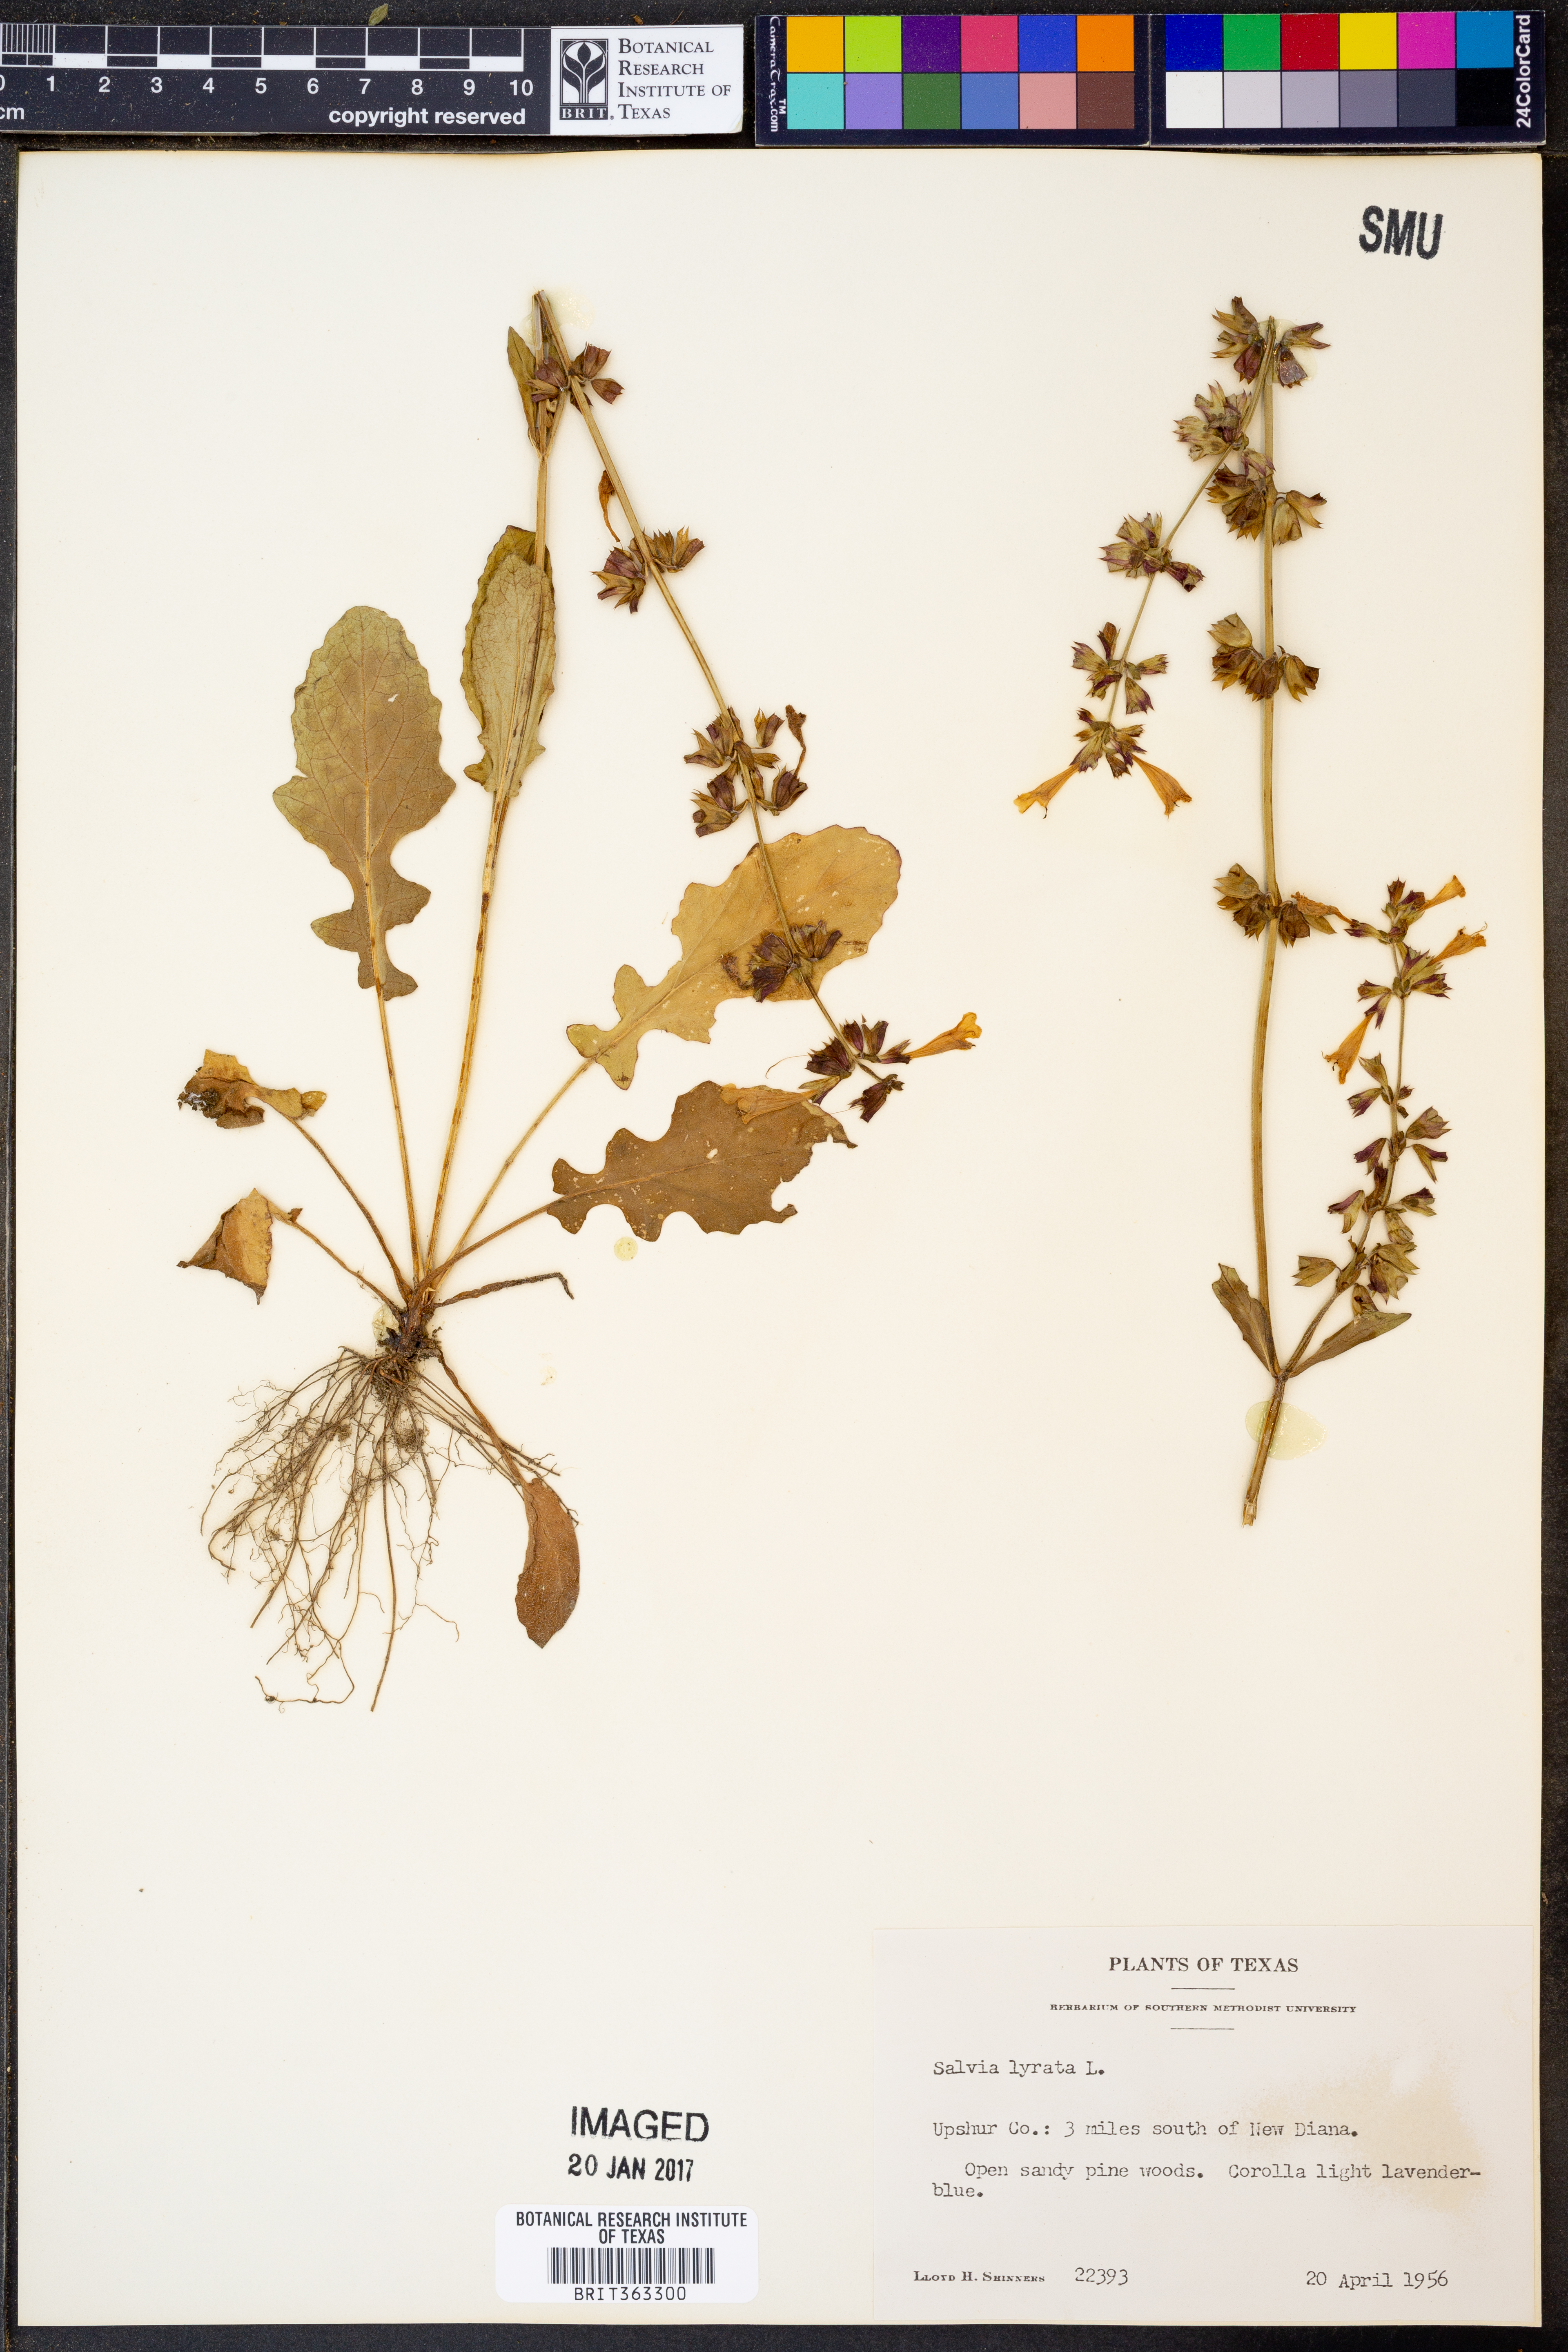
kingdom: Plantae
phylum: Tracheophyta
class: Magnoliopsida
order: Lamiales
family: Lamiaceae
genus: Salvia
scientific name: Salvia lyrata
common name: Cancerweed
